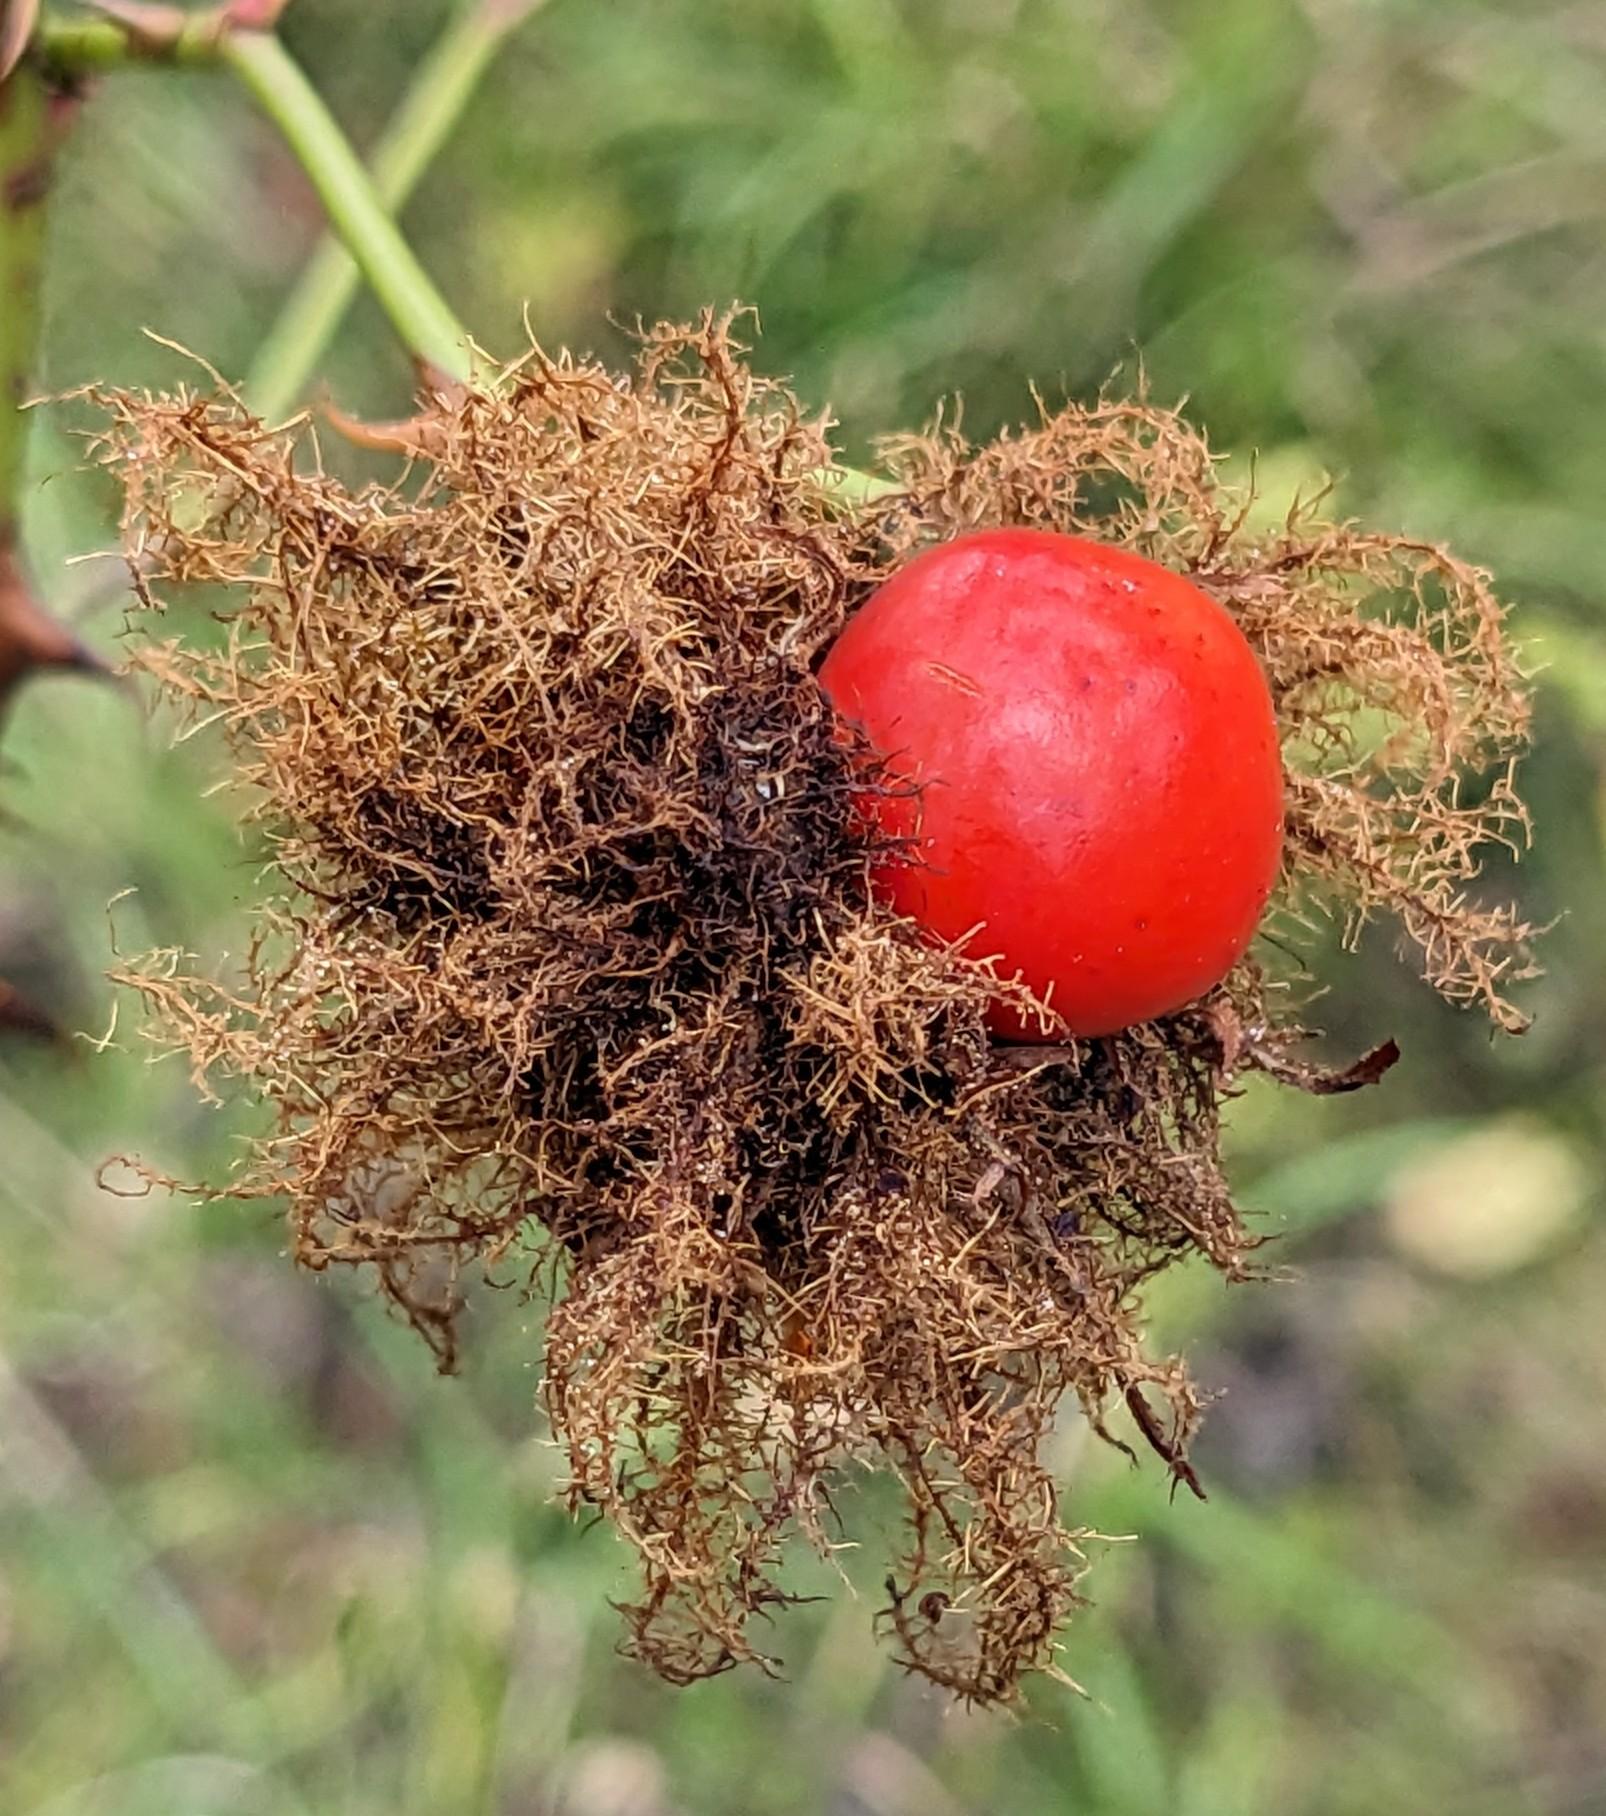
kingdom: Animalia
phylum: Arthropoda
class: Insecta
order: Hymenoptera
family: Cynipidae
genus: Diplolepis
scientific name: Diplolepis rosae
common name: Bedeguargalhveps
